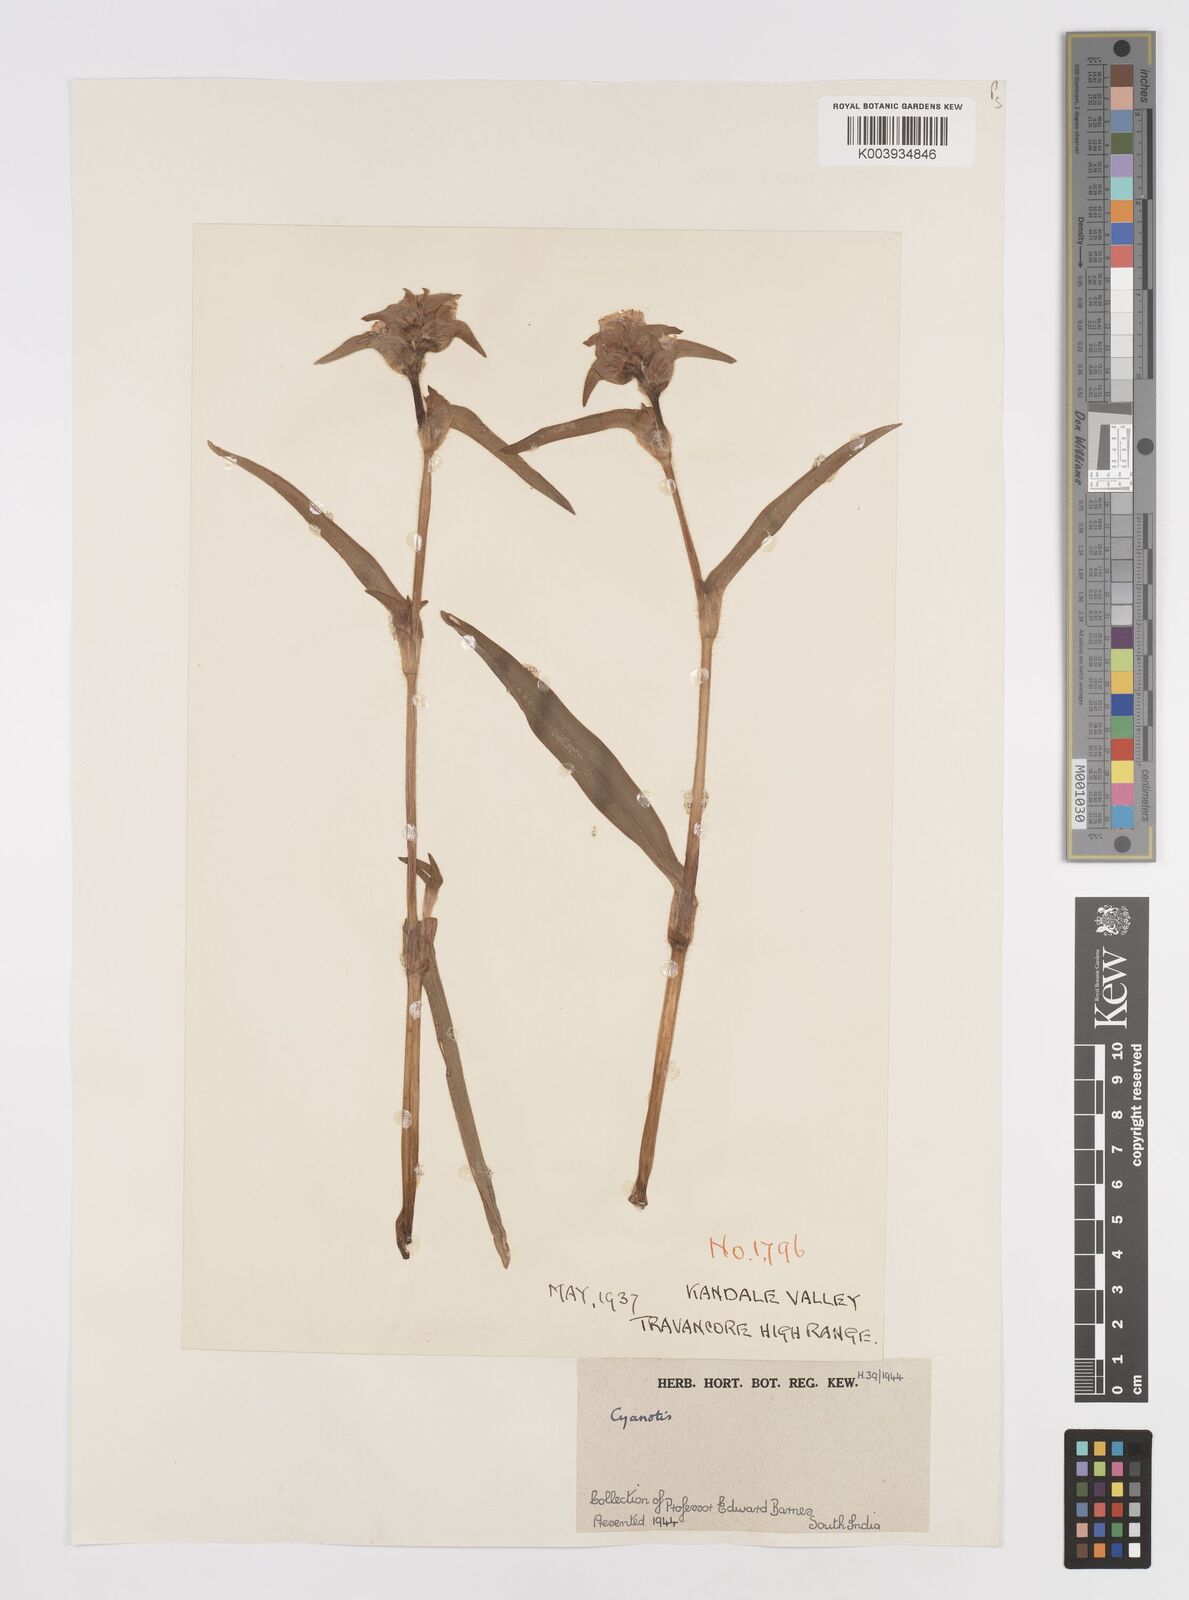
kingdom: Plantae
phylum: Tracheophyta
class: Liliopsida
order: Commelinales
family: Commelinaceae
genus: Cyanotis
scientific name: Cyanotis
